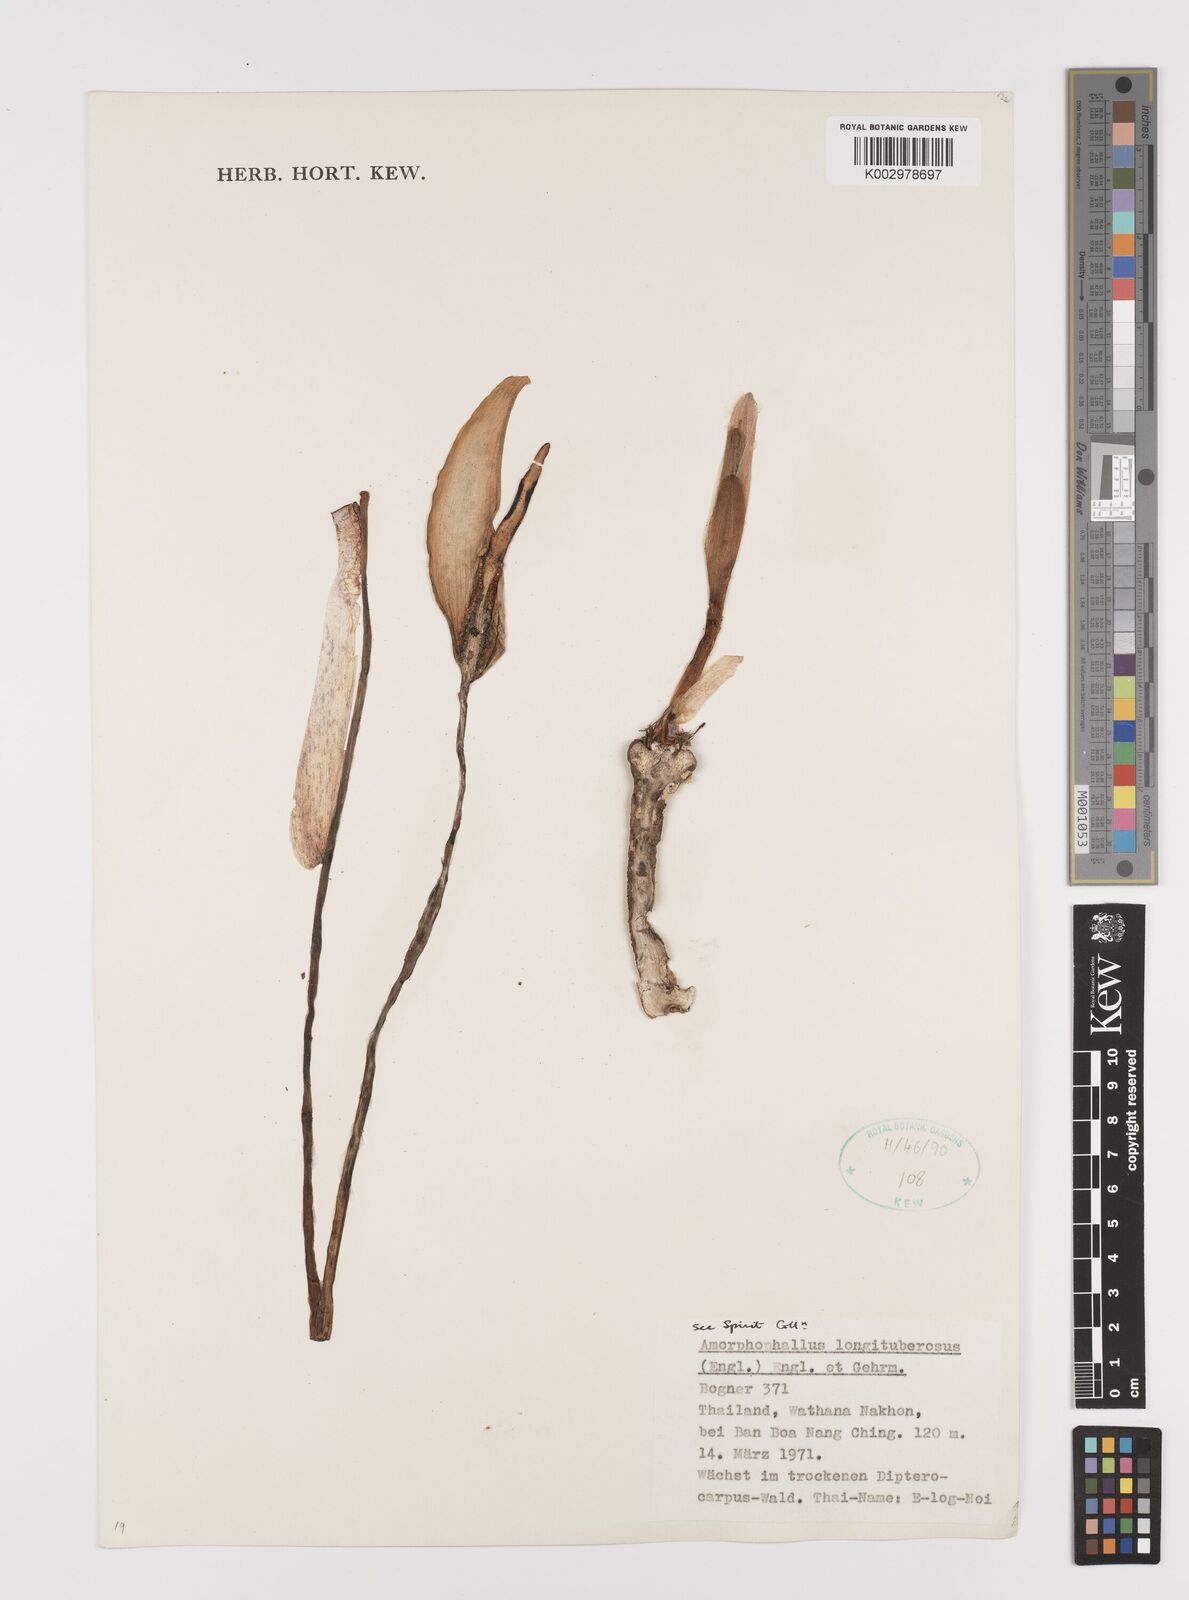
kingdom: Plantae
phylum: Tracheophyta
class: Liliopsida
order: Alismatales
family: Araceae
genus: Amorphophallus
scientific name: Amorphophallus longituberosus
